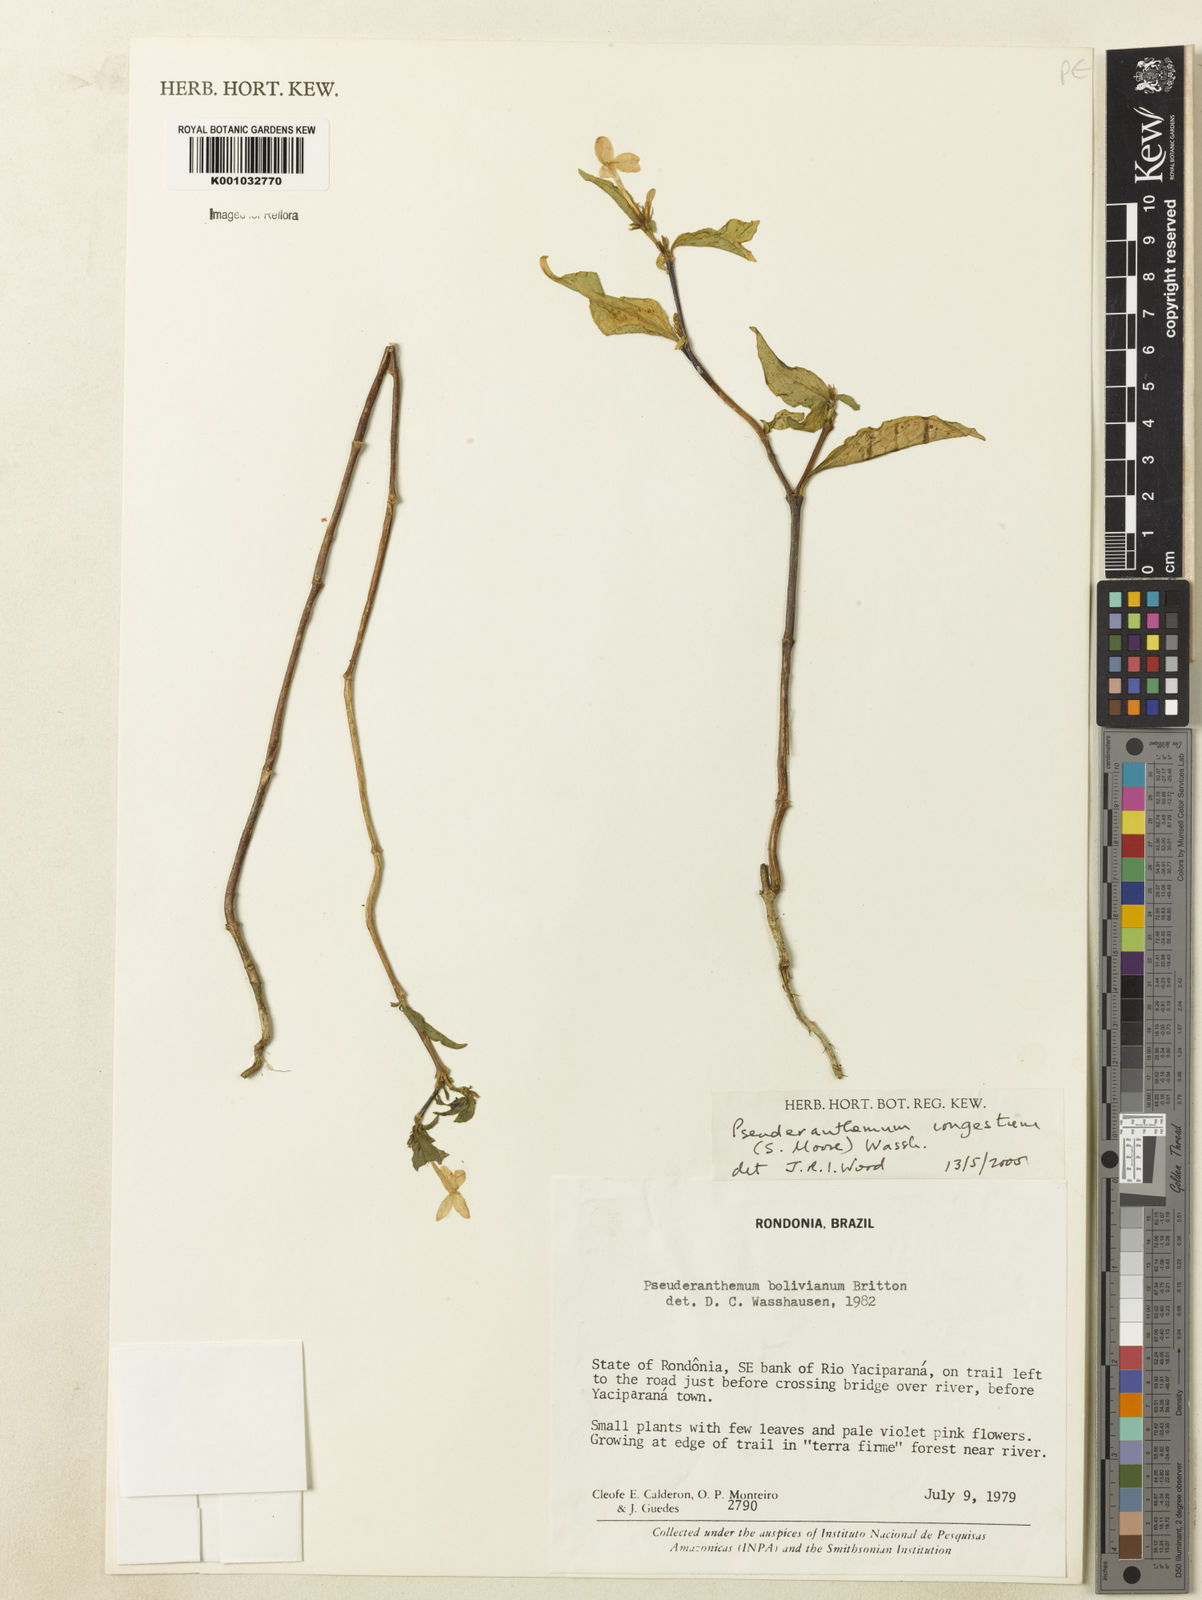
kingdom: Plantae
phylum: Tracheophyta
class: Magnoliopsida
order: Lamiales
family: Acanthaceae
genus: Pseuderanthemum
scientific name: Pseuderanthemum
